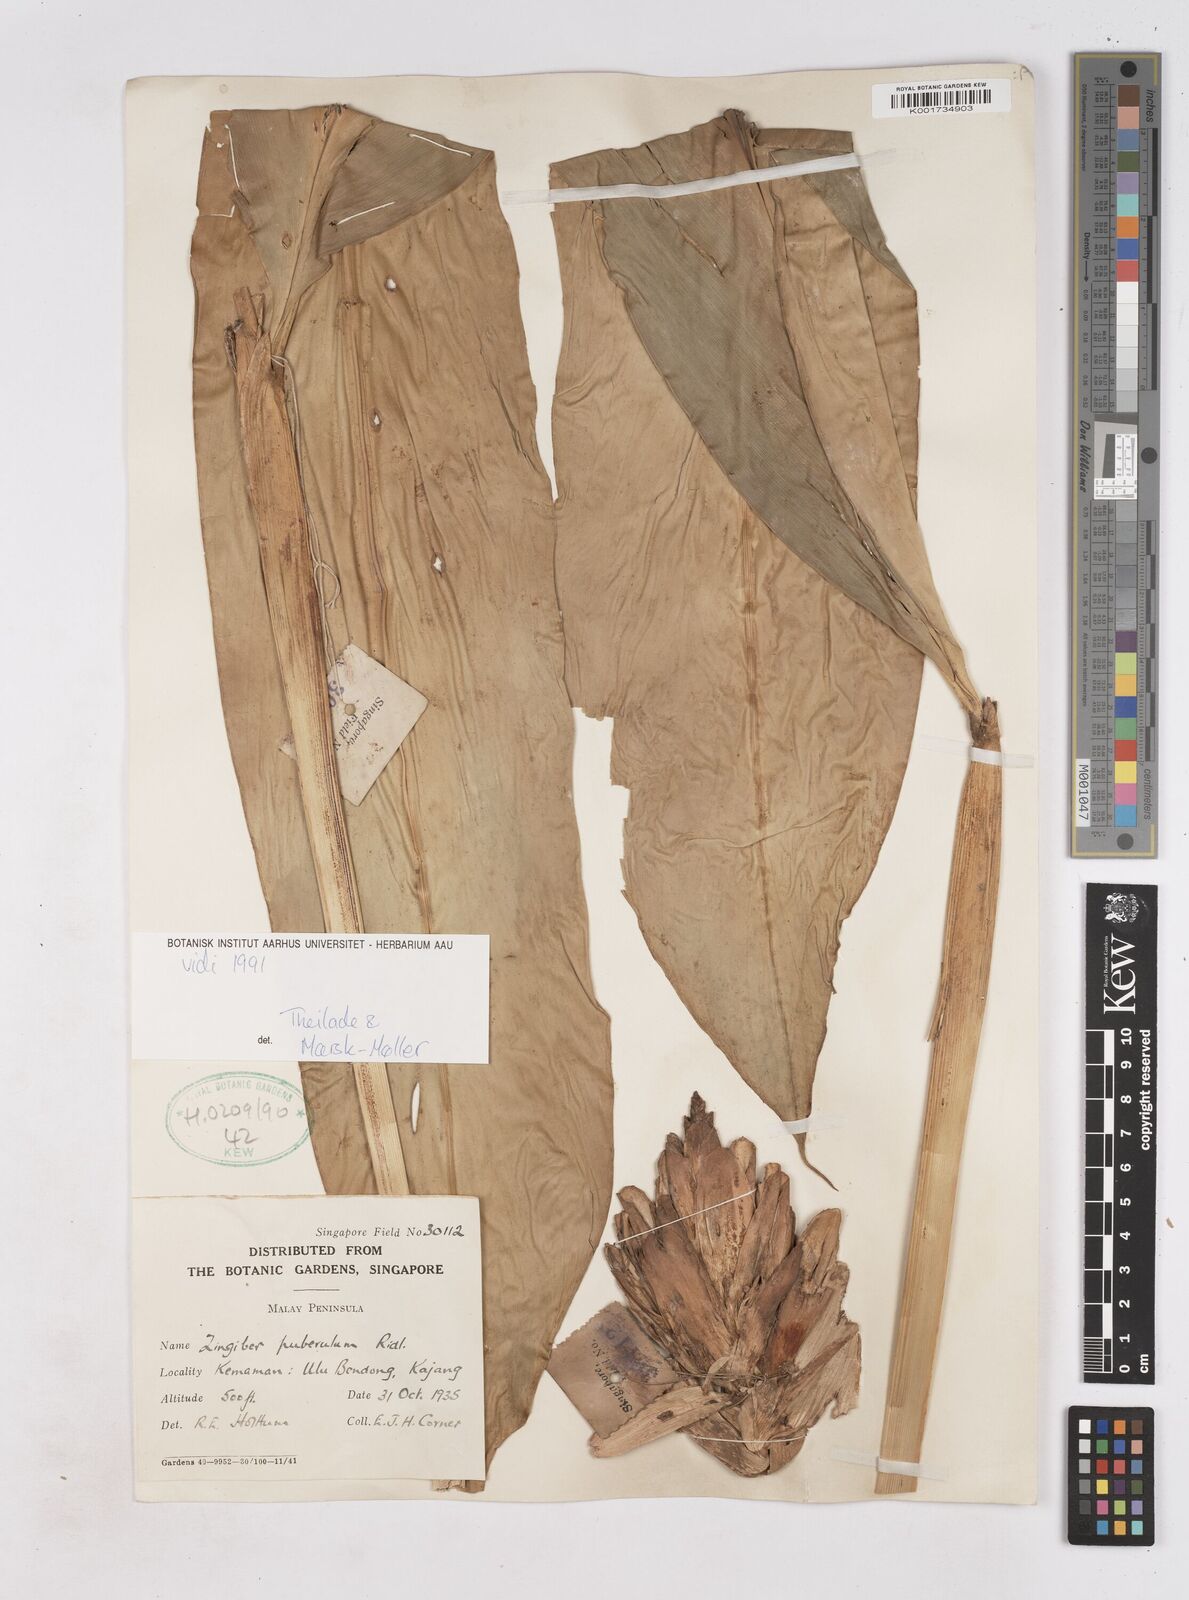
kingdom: Plantae
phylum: Tracheophyta
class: Liliopsida
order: Zingiberales
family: Zingiberaceae
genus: Zingiber
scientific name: Zingiber puberulum
